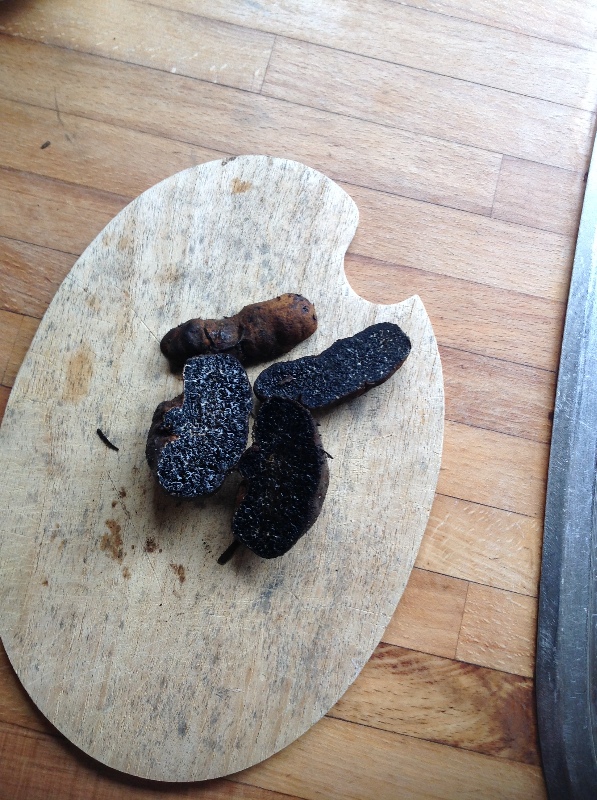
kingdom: Fungi
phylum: Basidiomycota
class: Agaricomycetes
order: Boletales
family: Paxillaceae
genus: Melanogaster
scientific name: Melanogaster broomeanus
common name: broget slimtrøffel
